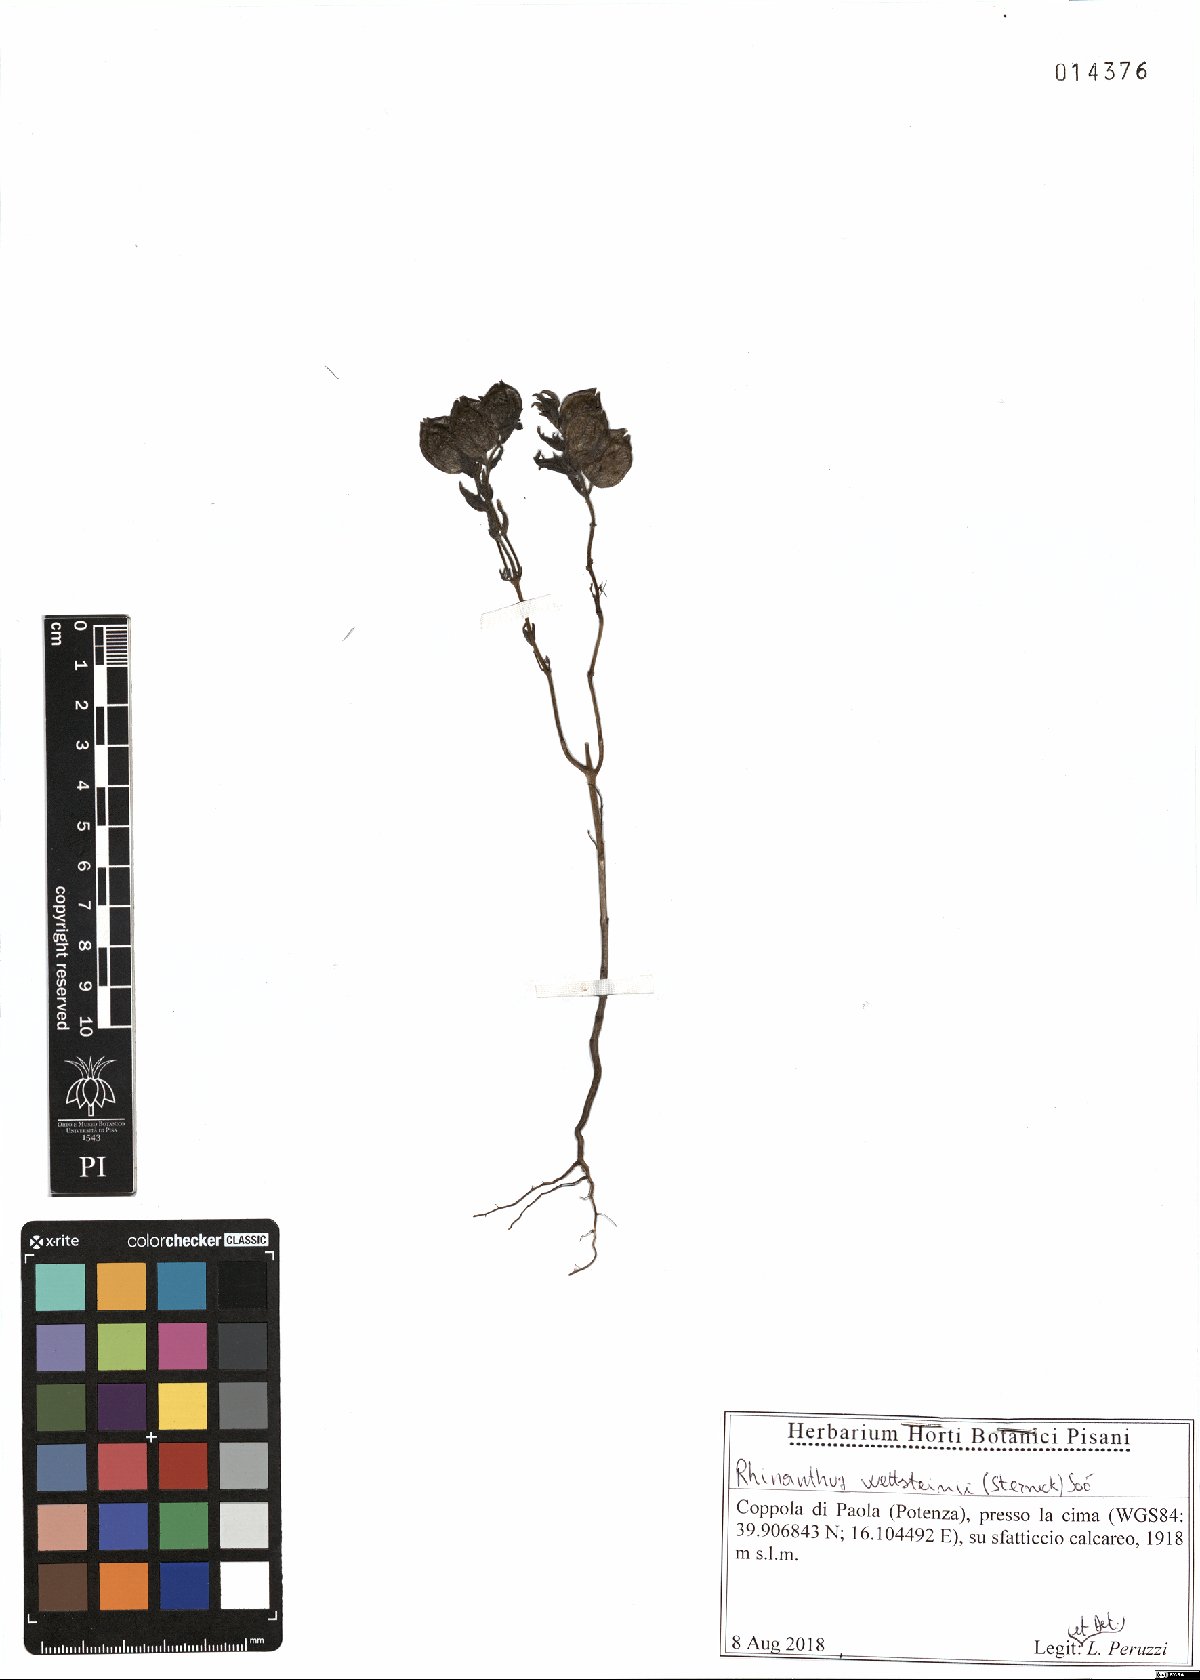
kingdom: Plantae
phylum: Tracheophyta
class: Magnoliopsida
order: Lamiales
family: Orobanchaceae
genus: Rhinanthus
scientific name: Rhinanthus wettsteinii
